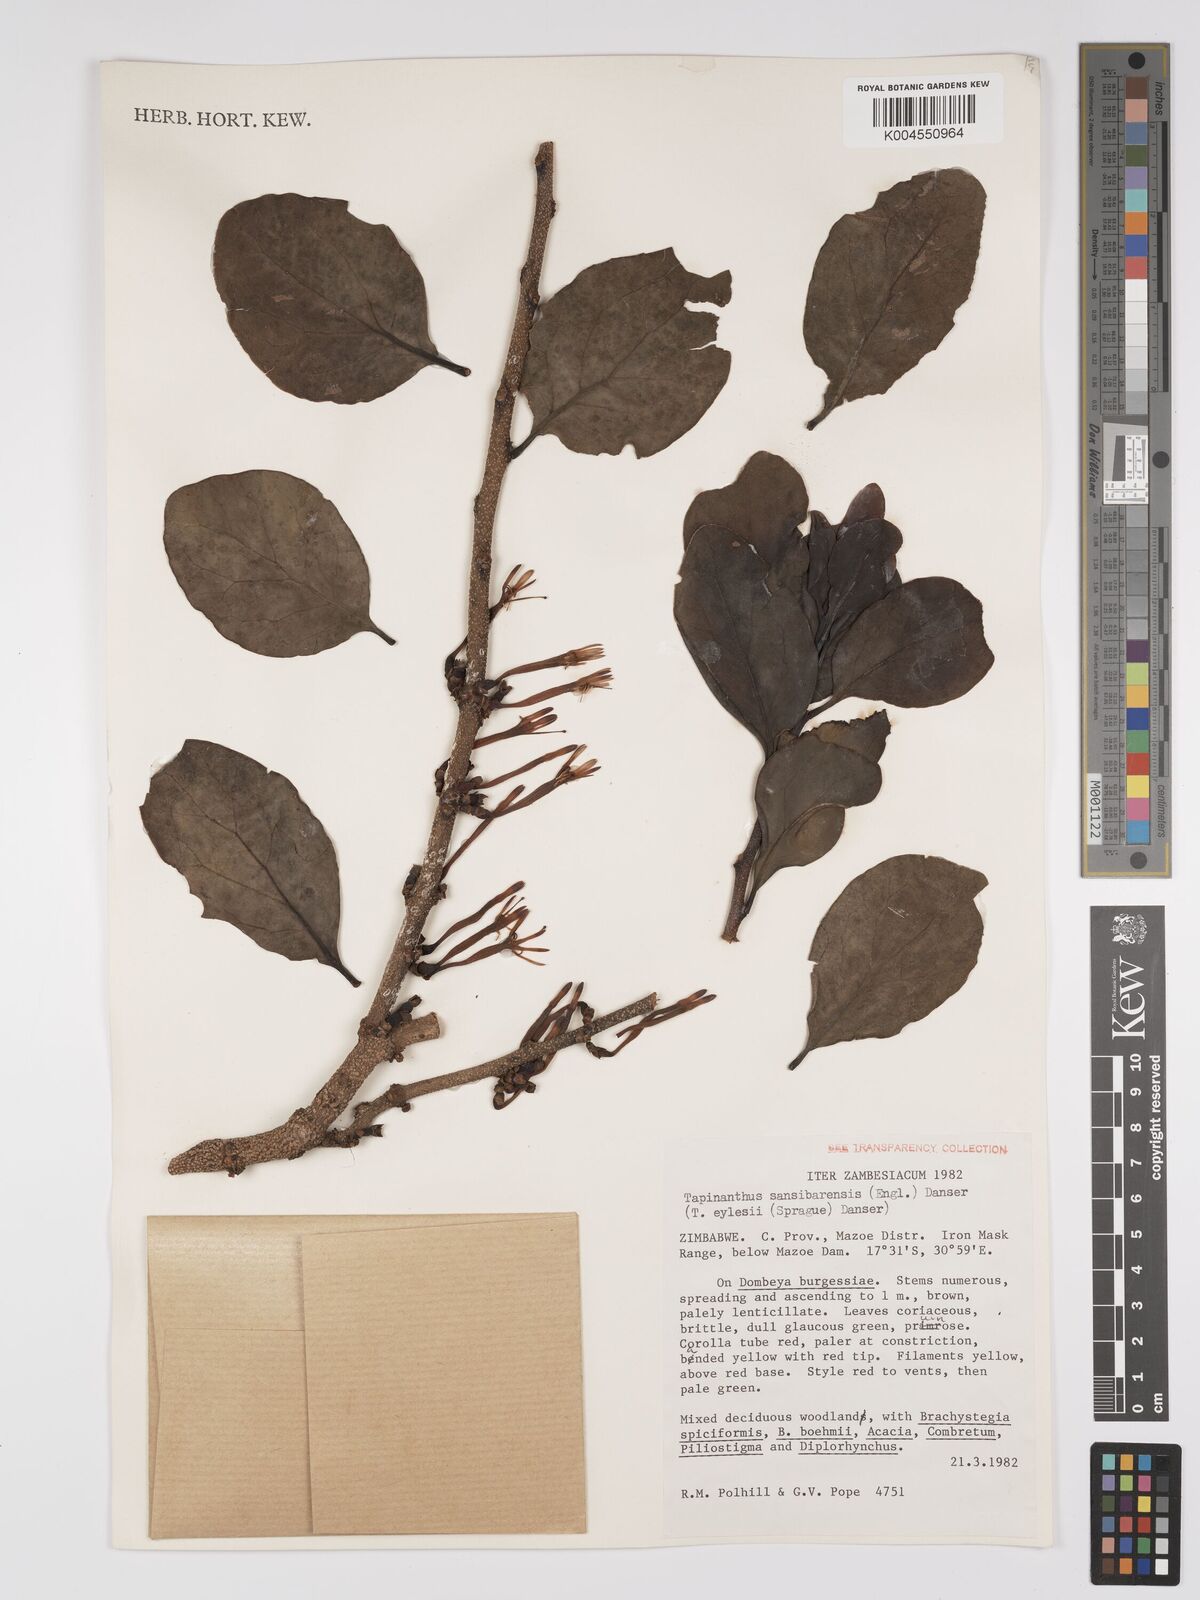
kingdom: Plantae
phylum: Tracheophyta
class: Magnoliopsida
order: Santalales
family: Loranthaceae
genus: Agelanthus
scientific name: Agelanthus fuellebornii
